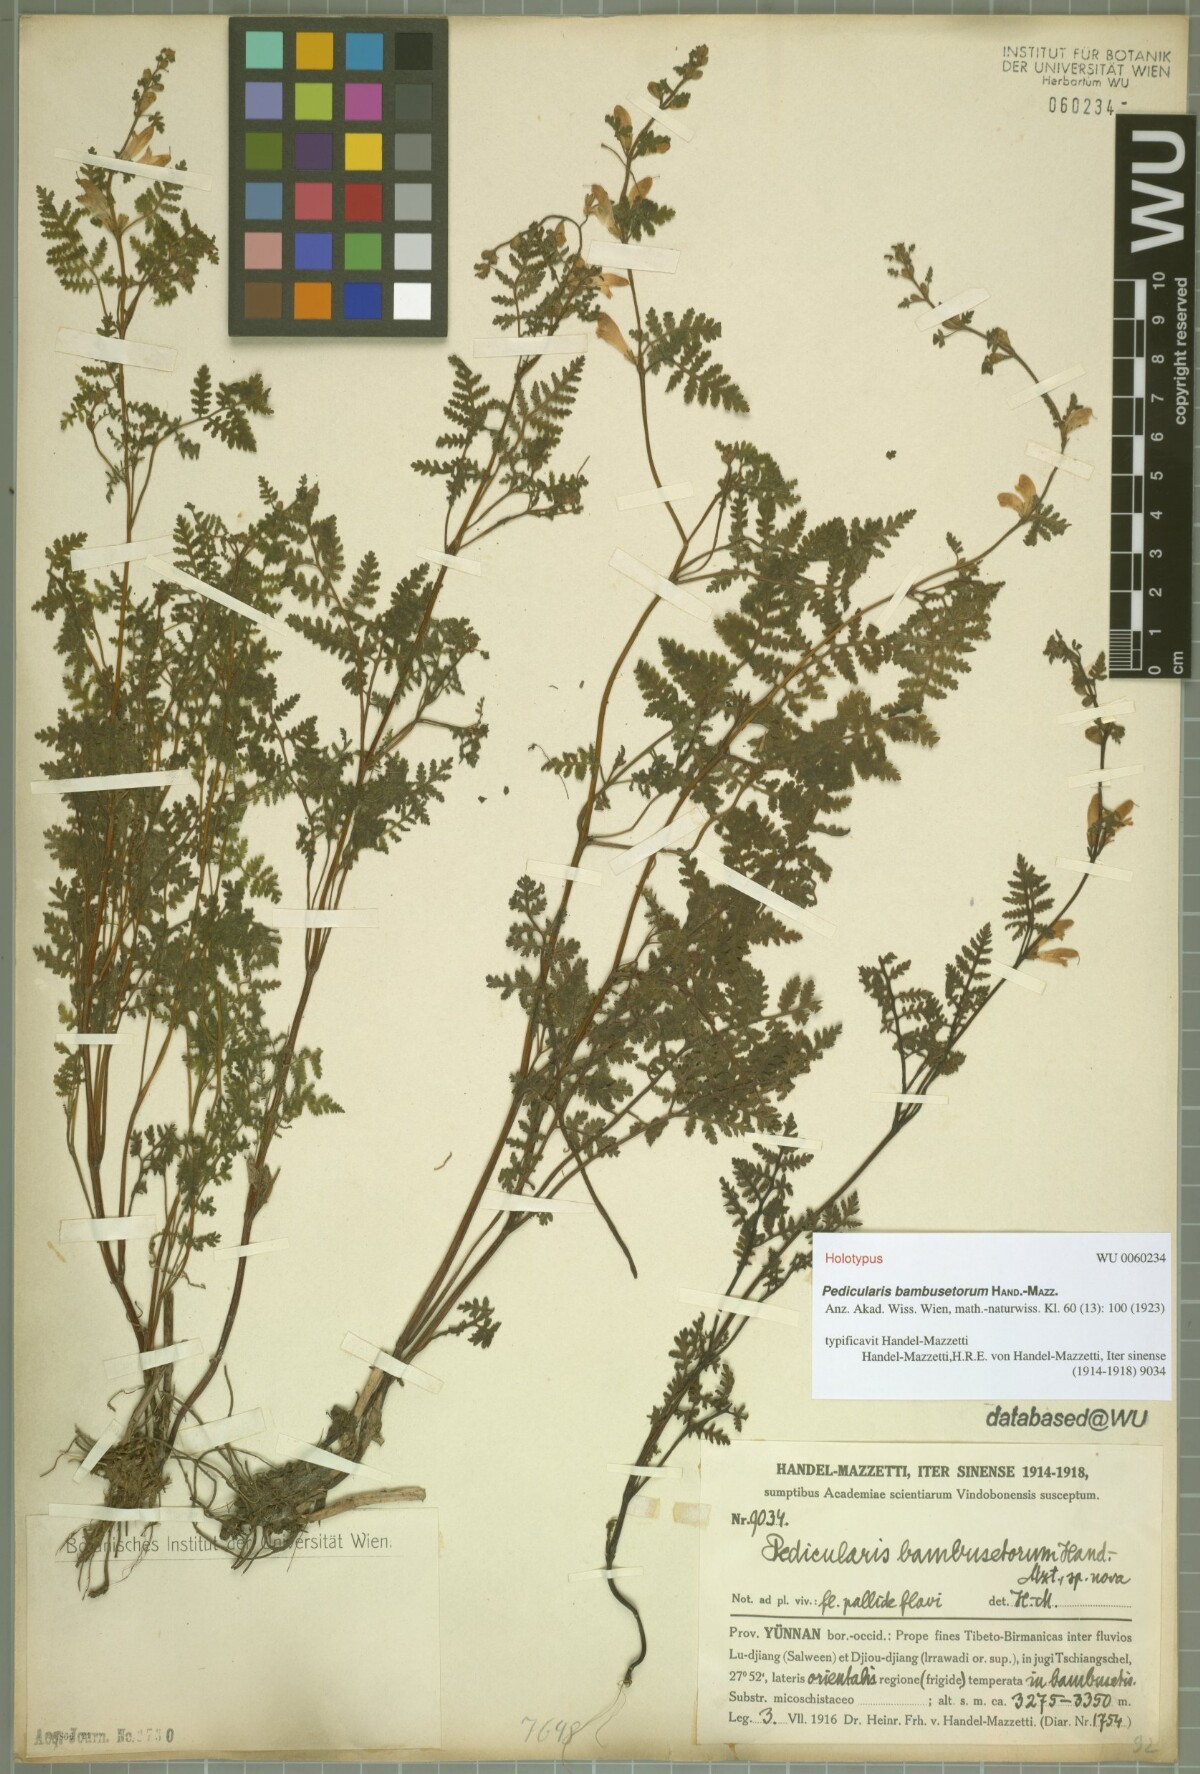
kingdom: Plantae
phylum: Tracheophyta
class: Magnoliopsida
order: Lamiales
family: Orobanchaceae
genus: Pedicularis
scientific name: Pedicularis bambusetorum
